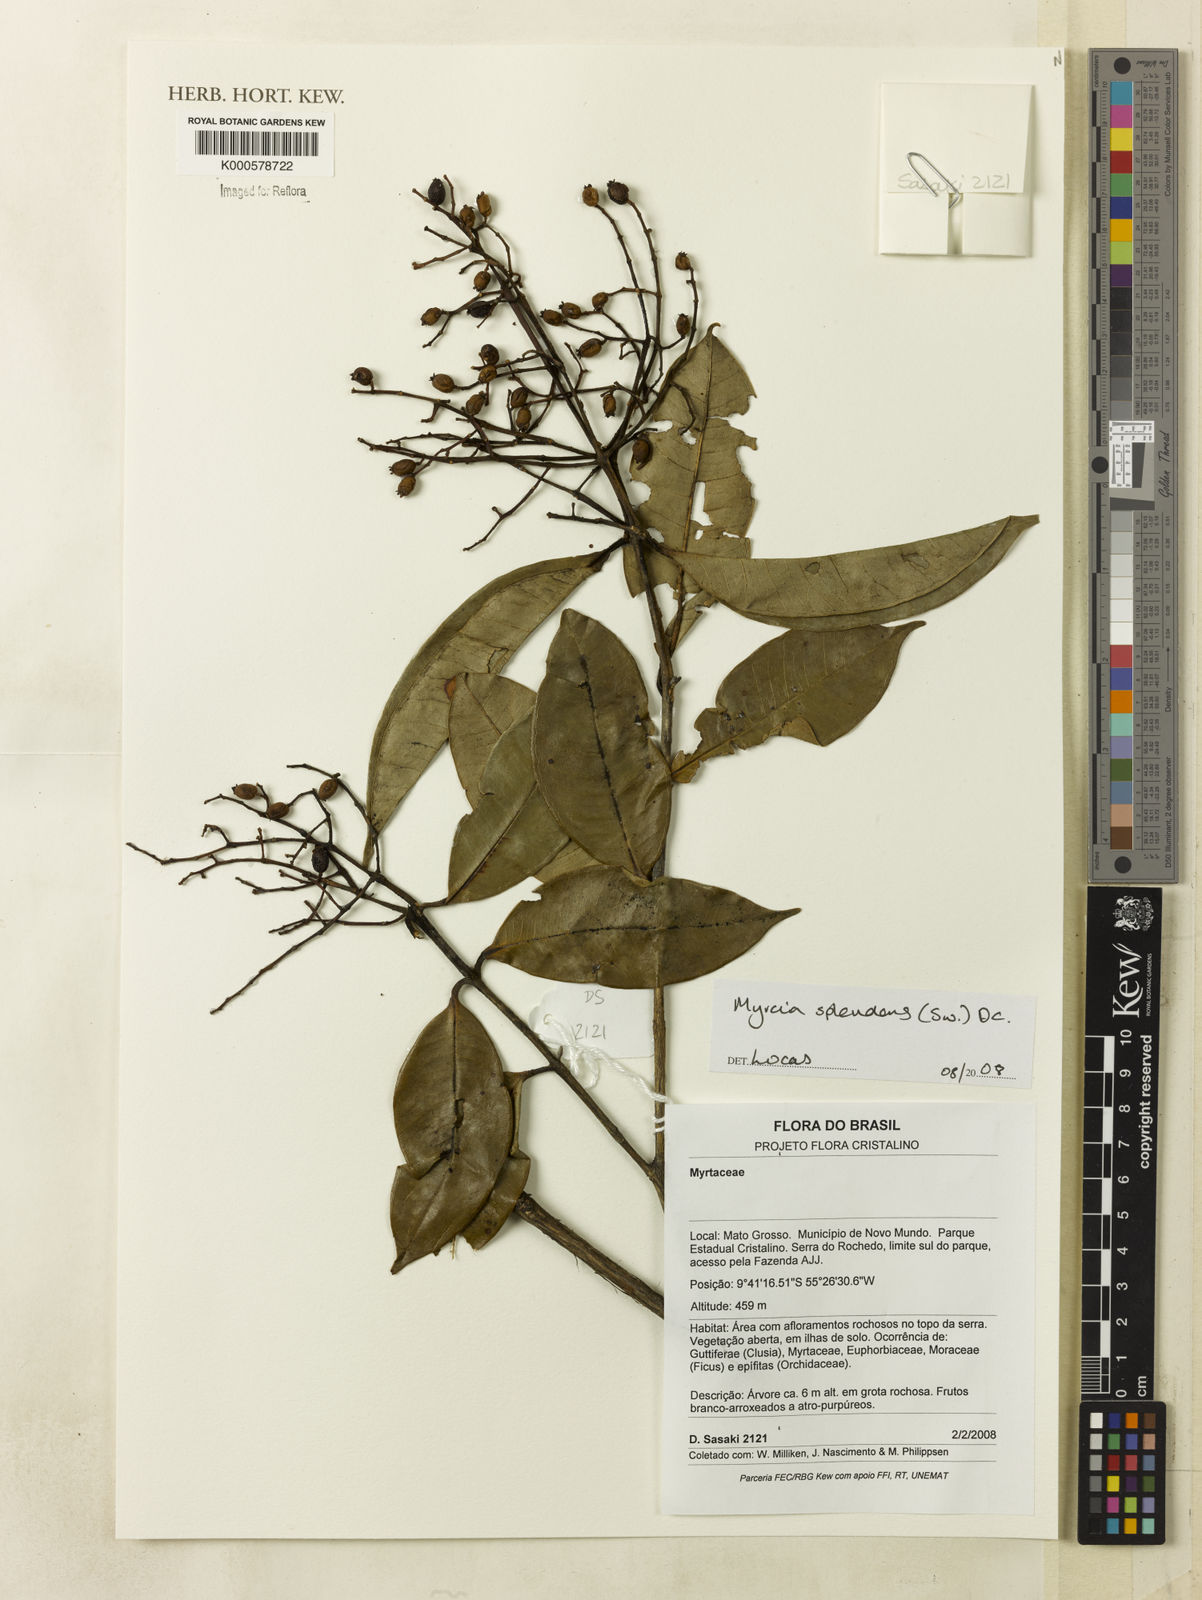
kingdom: Plantae
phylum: Tracheophyta
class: Magnoliopsida
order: Myrtales
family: Myrtaceae
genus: Myrcia
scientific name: Myrcia splendens
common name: Surinam cherry
